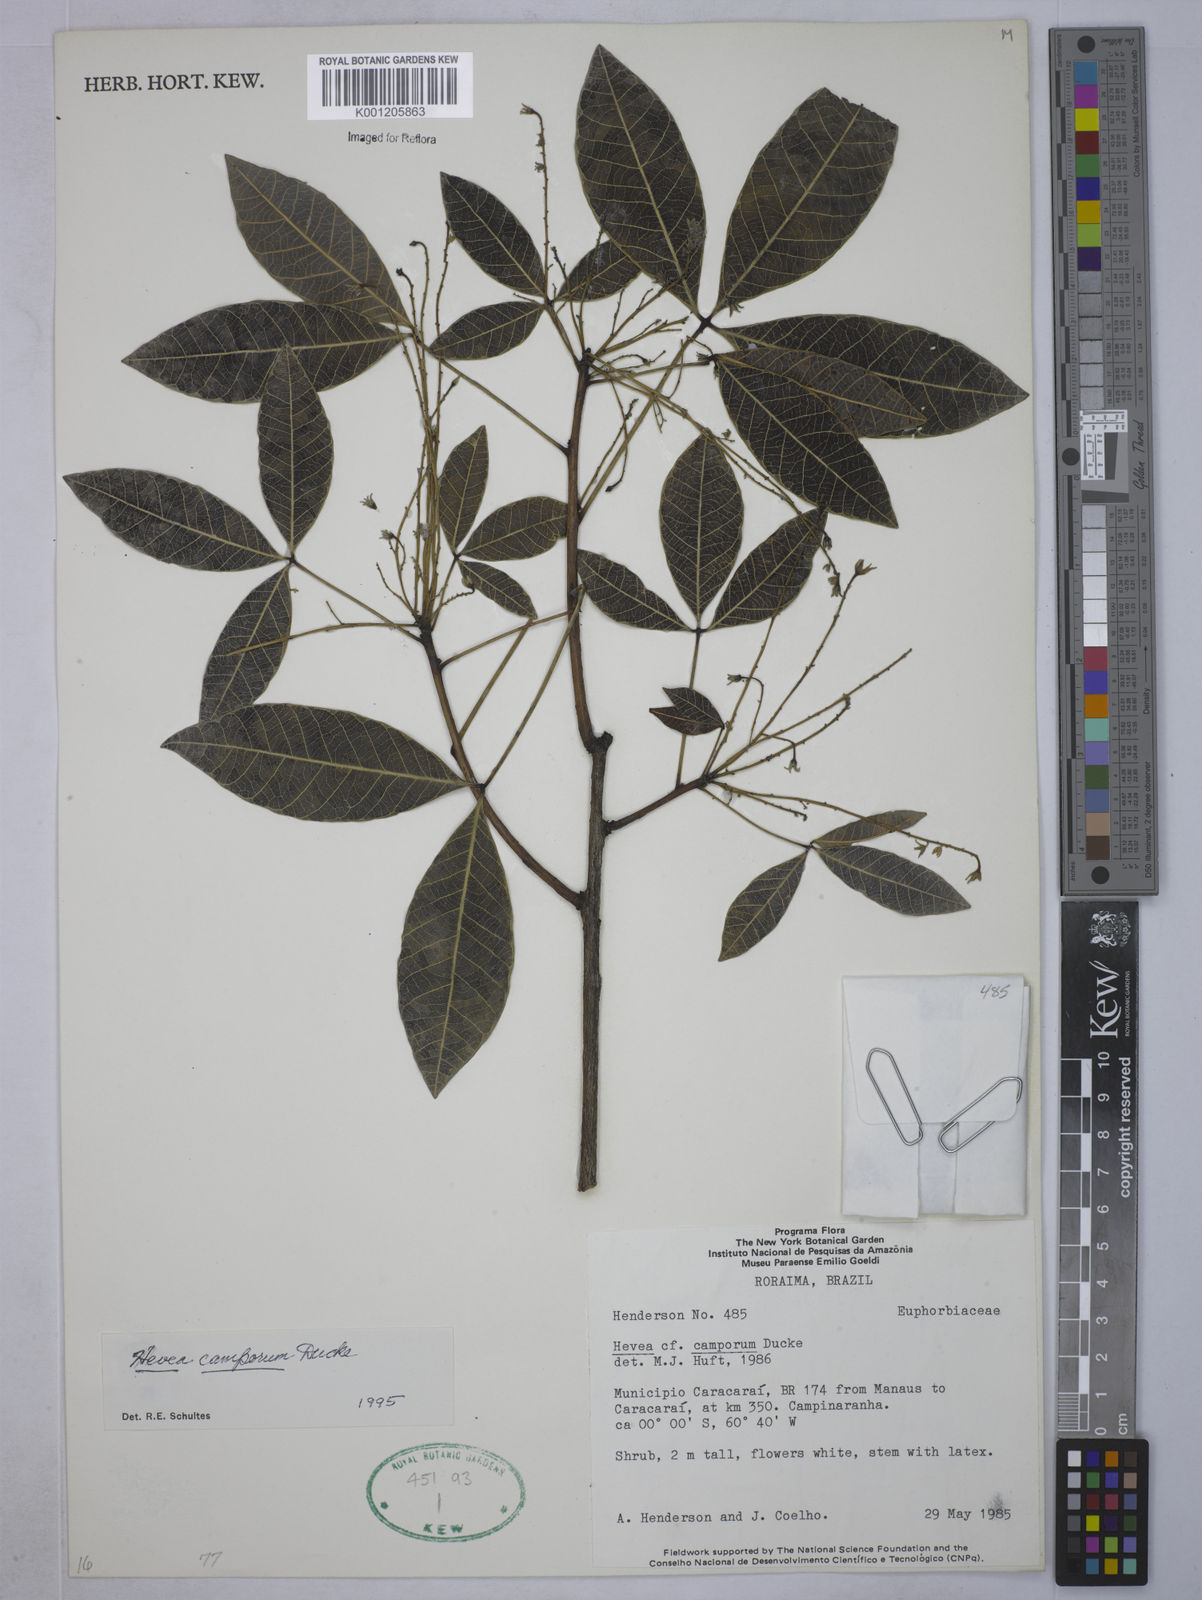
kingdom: Plantae
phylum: Tracheophyta
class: Magnoliopsida
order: Malpighiales
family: Euphorbiaceae
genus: Hevea
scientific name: Hevea camporum
